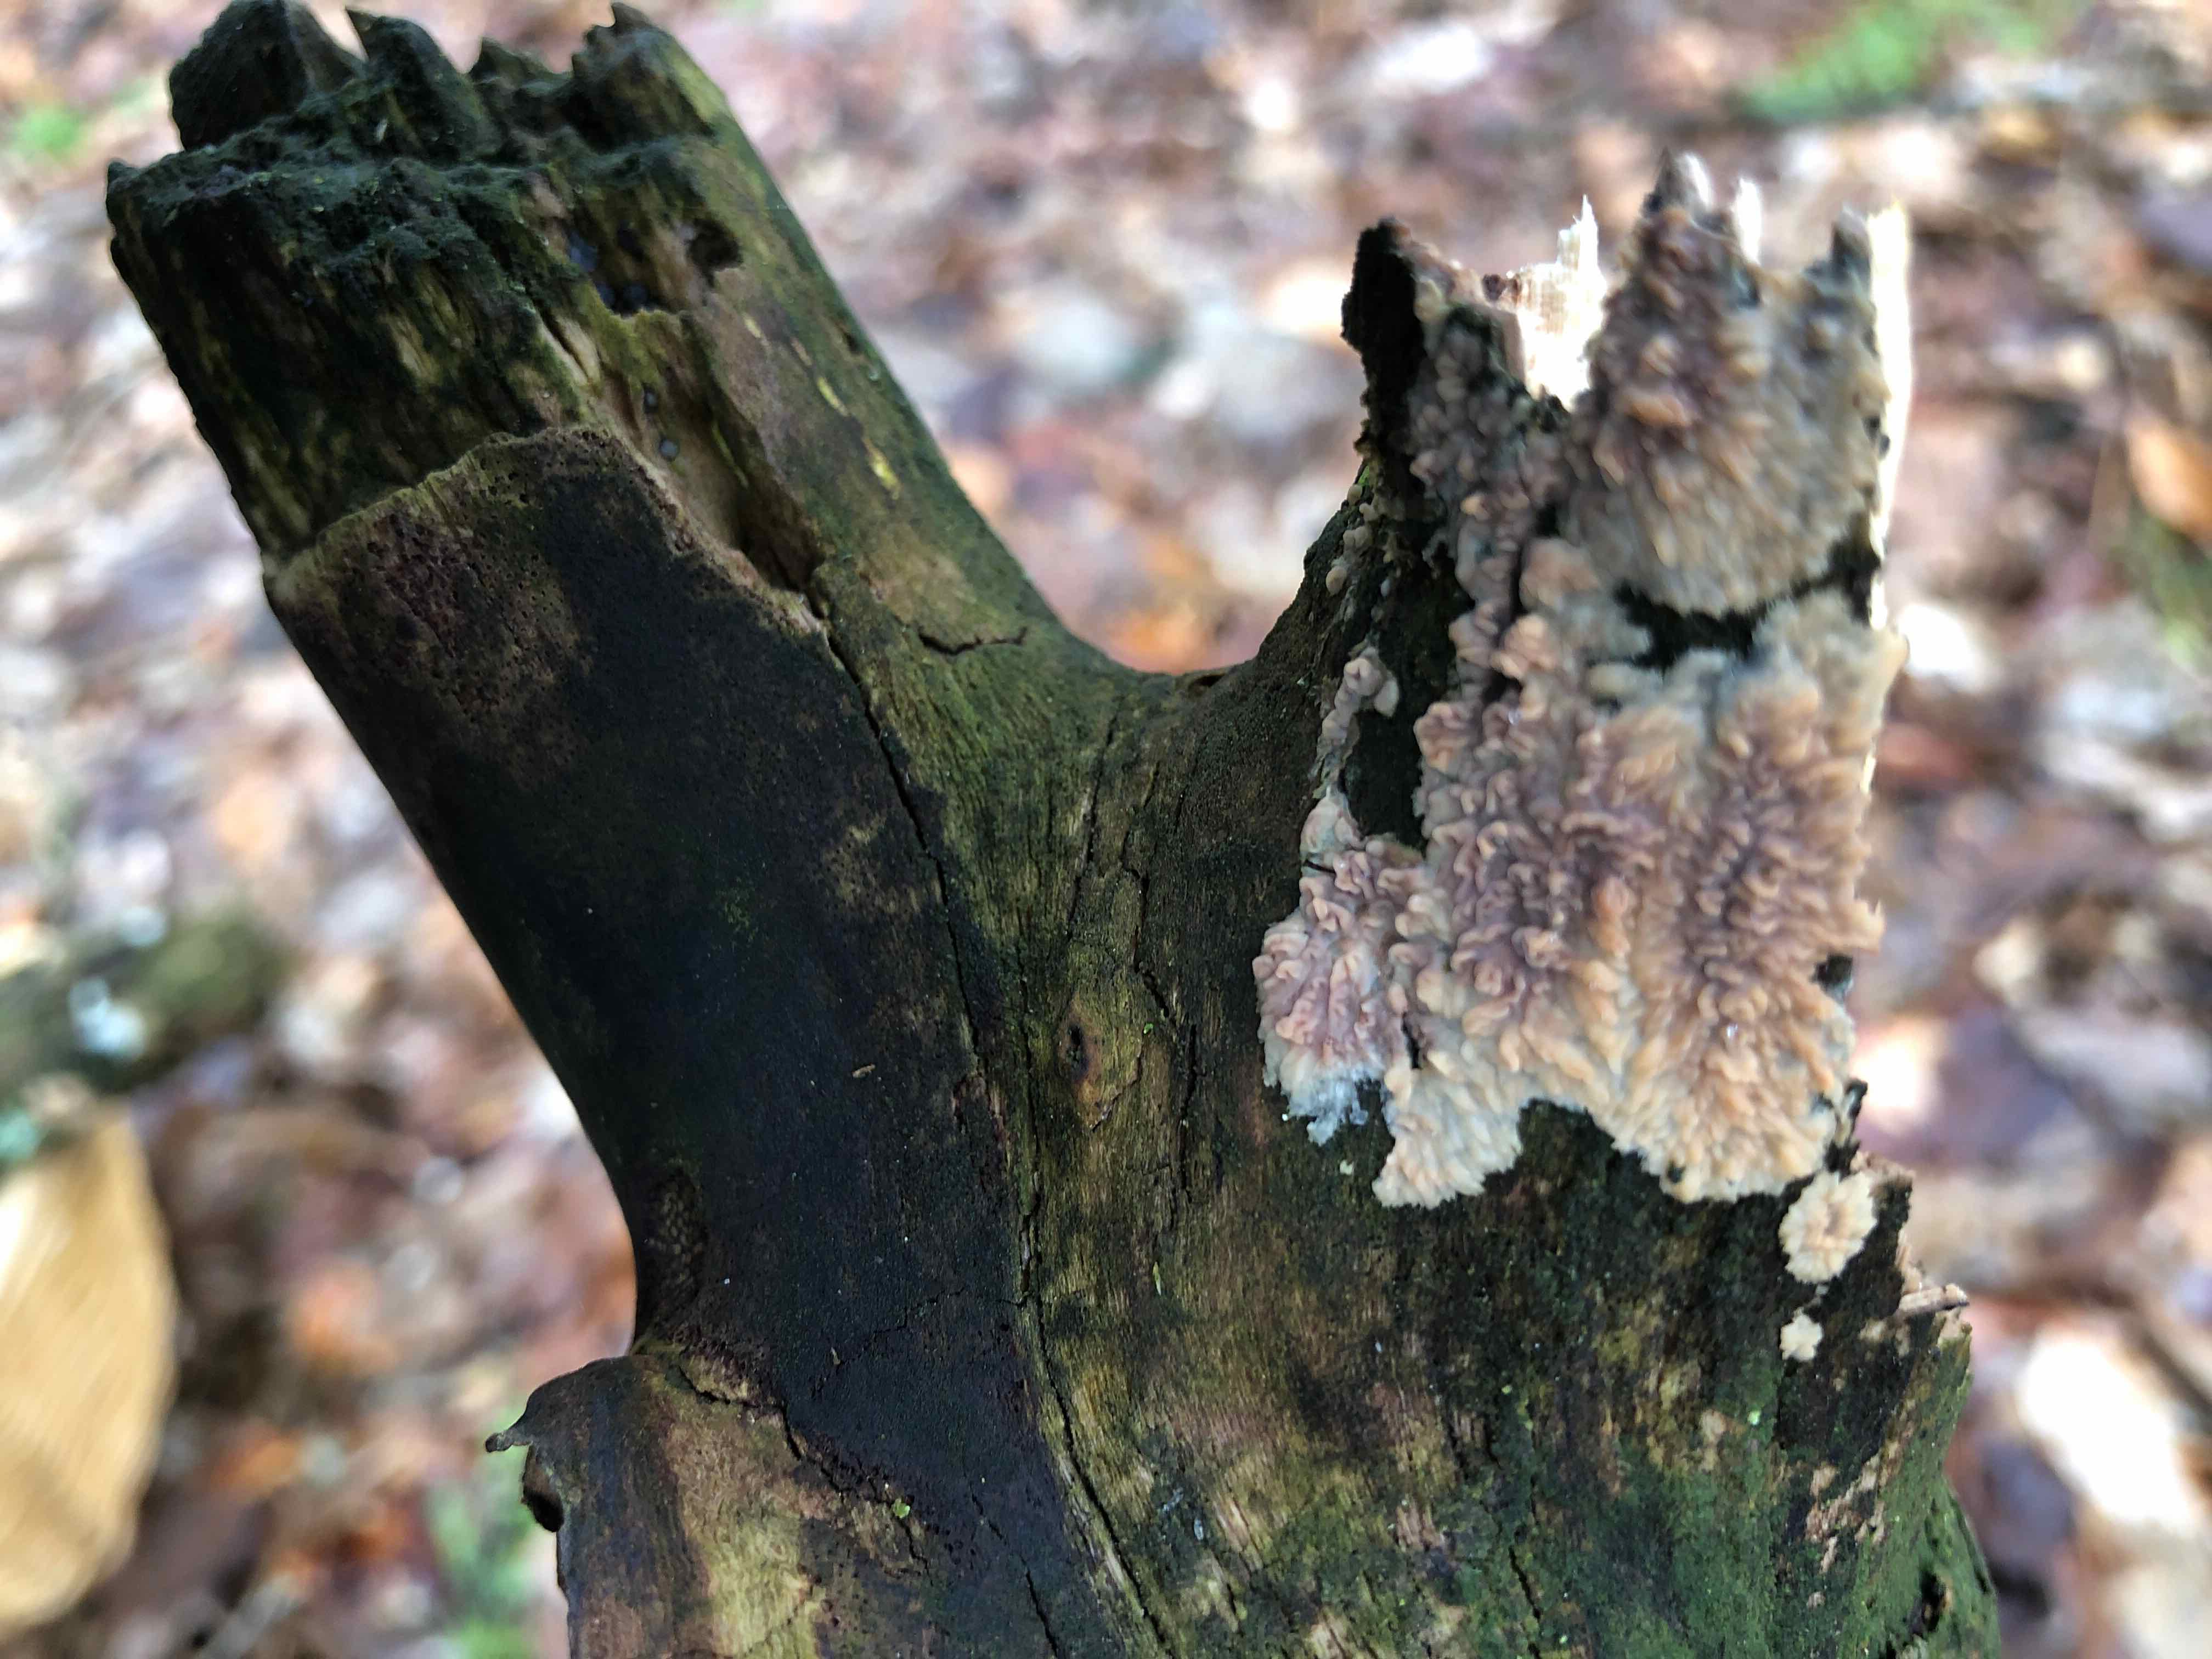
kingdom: Fungi
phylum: Basidiomycota
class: Agaricomycetes
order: Polyporales
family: Meruliaceae
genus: Phlebia
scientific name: Phlebia radiata
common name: stråle-åresvamp
